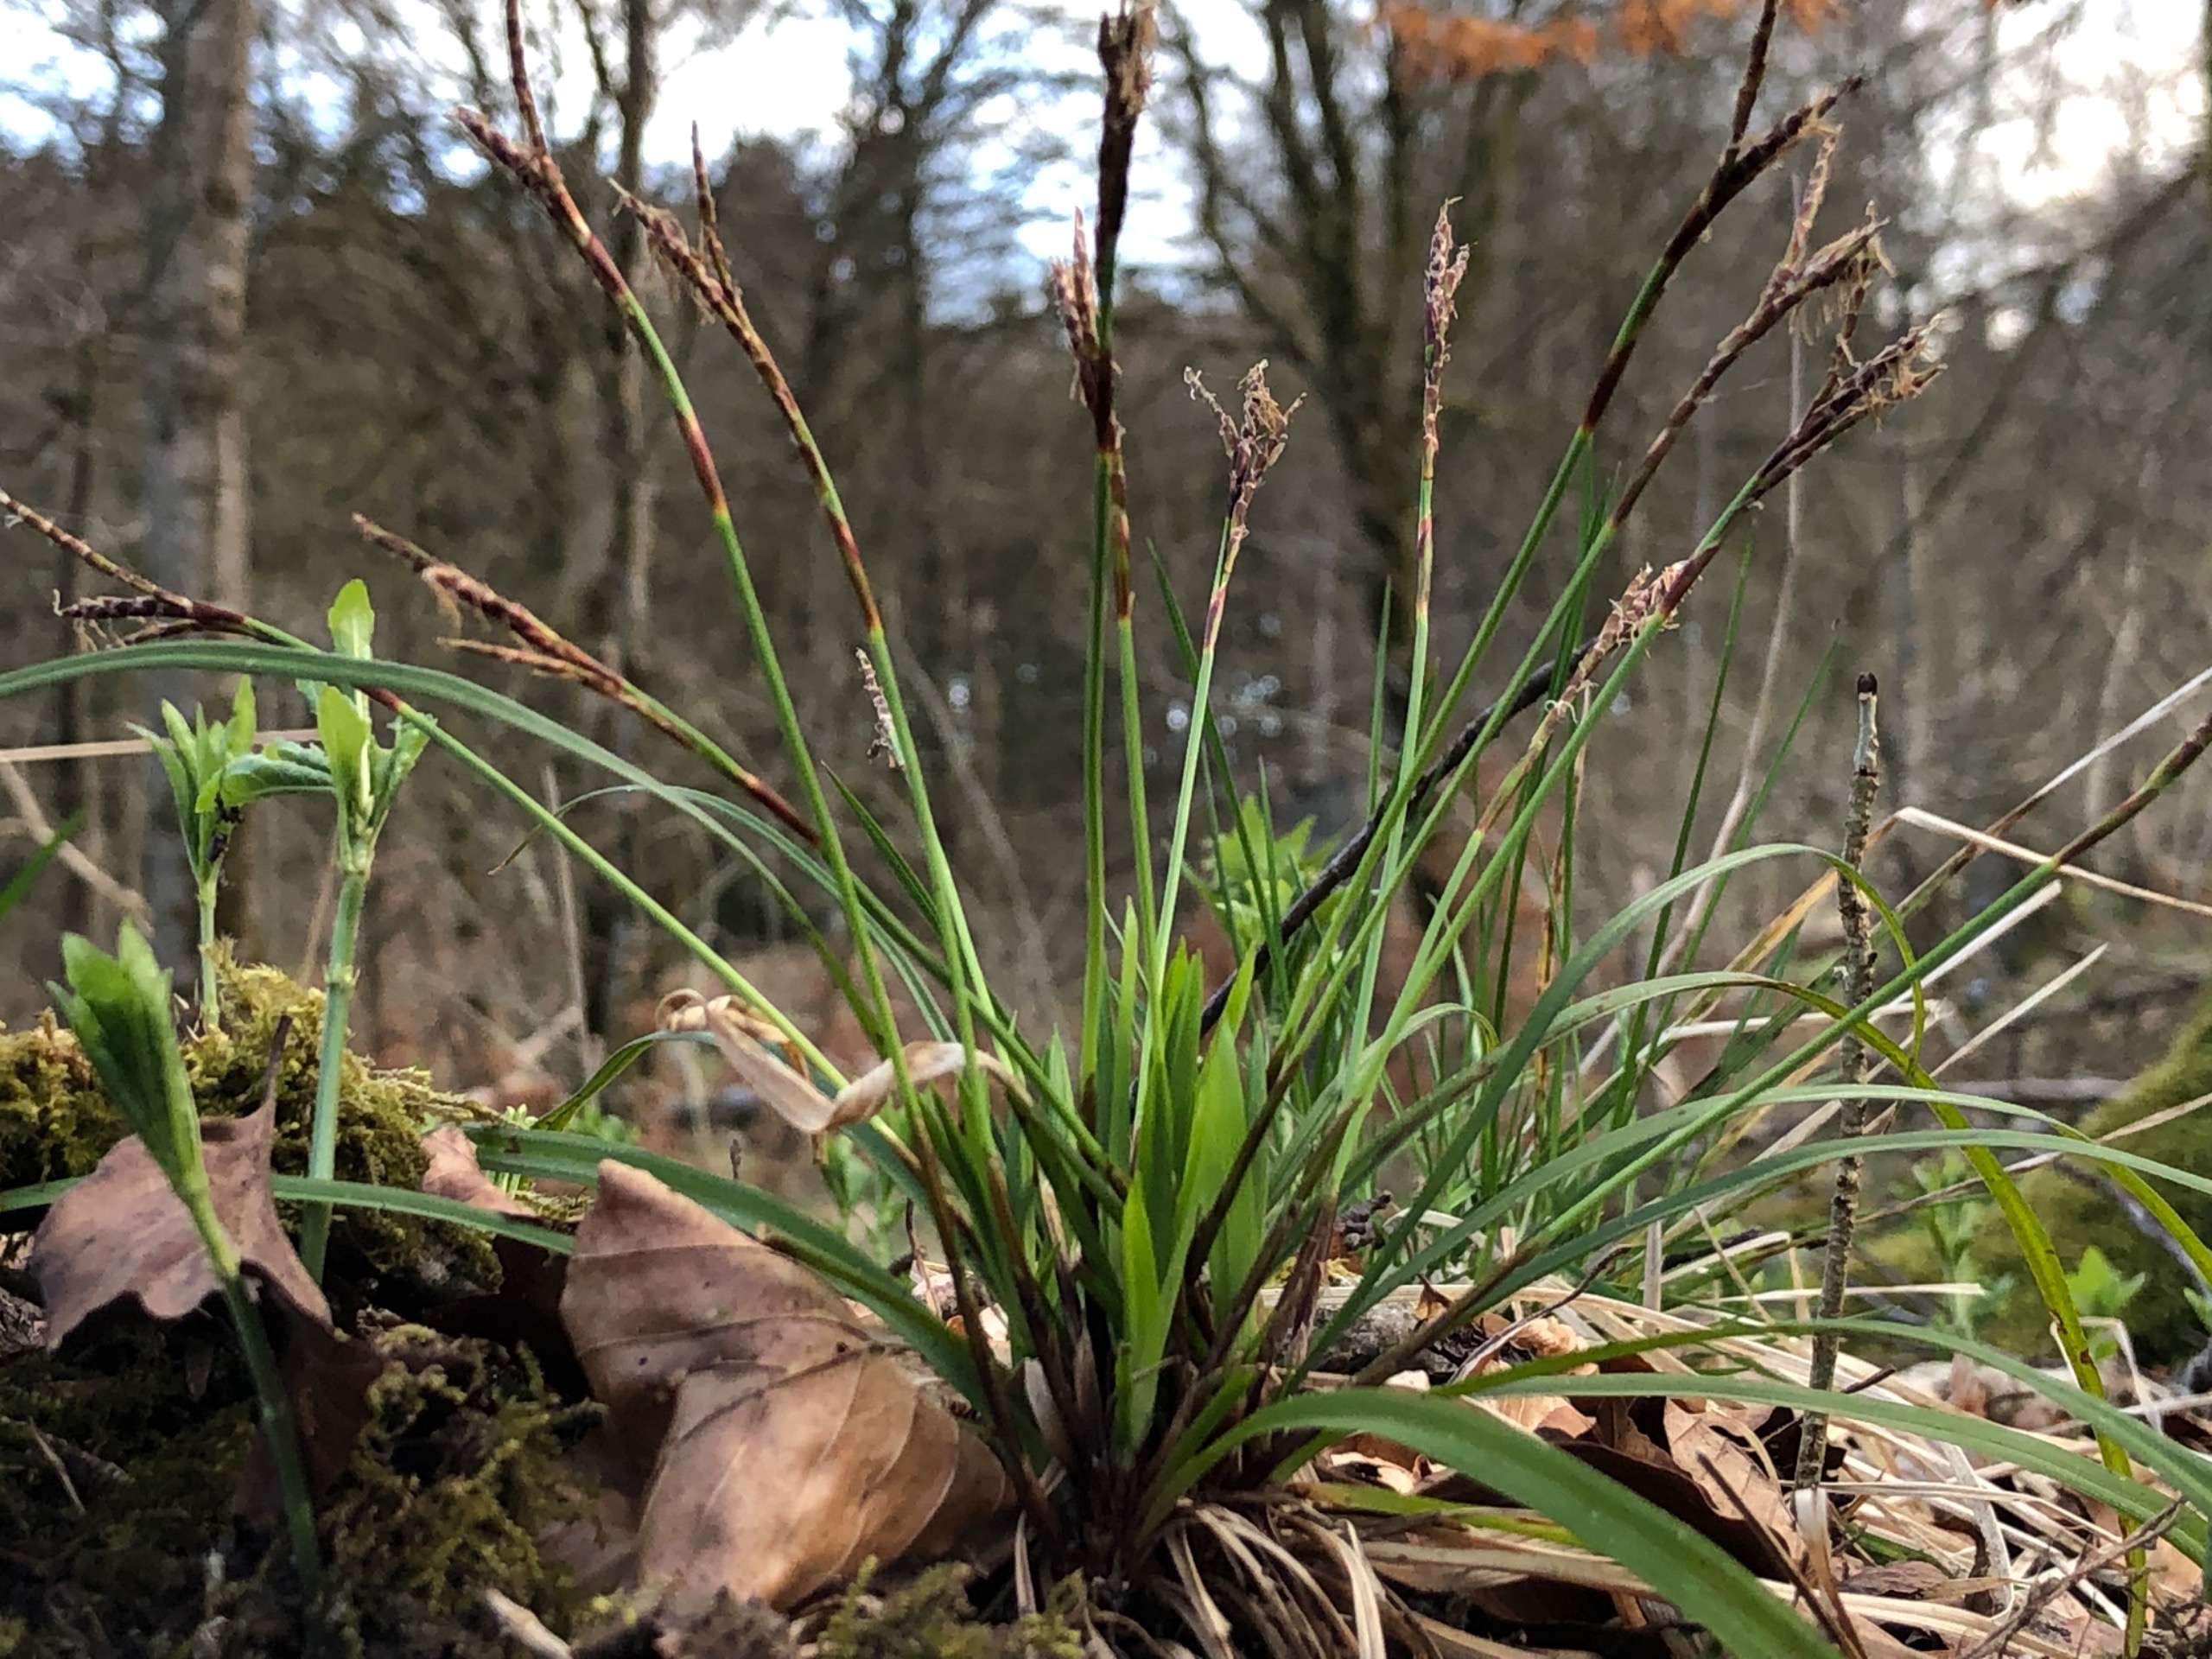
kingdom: Plantae
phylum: Tracheophyta
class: Liliopsida
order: Poales
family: Cyperaceae
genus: Carex
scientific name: Carex digitata
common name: Finger-star
